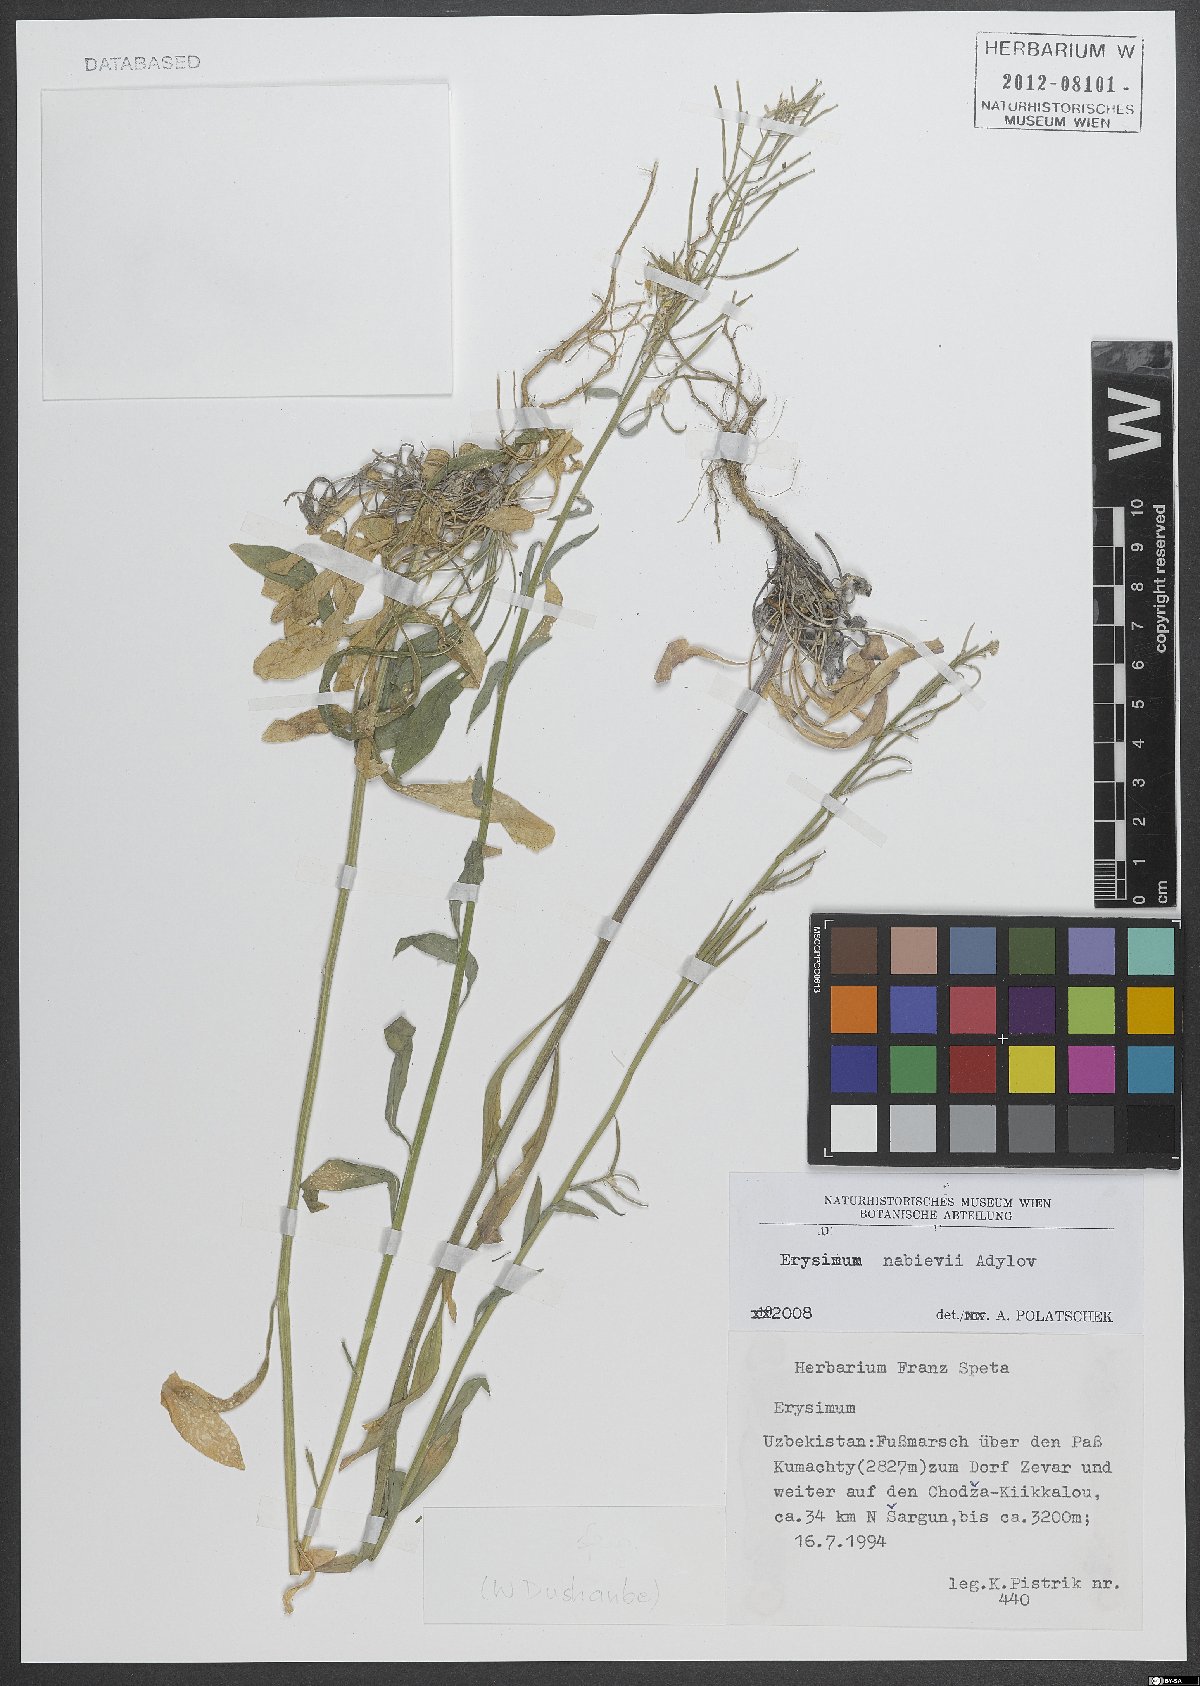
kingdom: Plantae
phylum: Tracheophyta
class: Magnoliopsida
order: Brassicales
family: Brassicaceae
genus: Erysimum
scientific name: Erysimum nabievii
